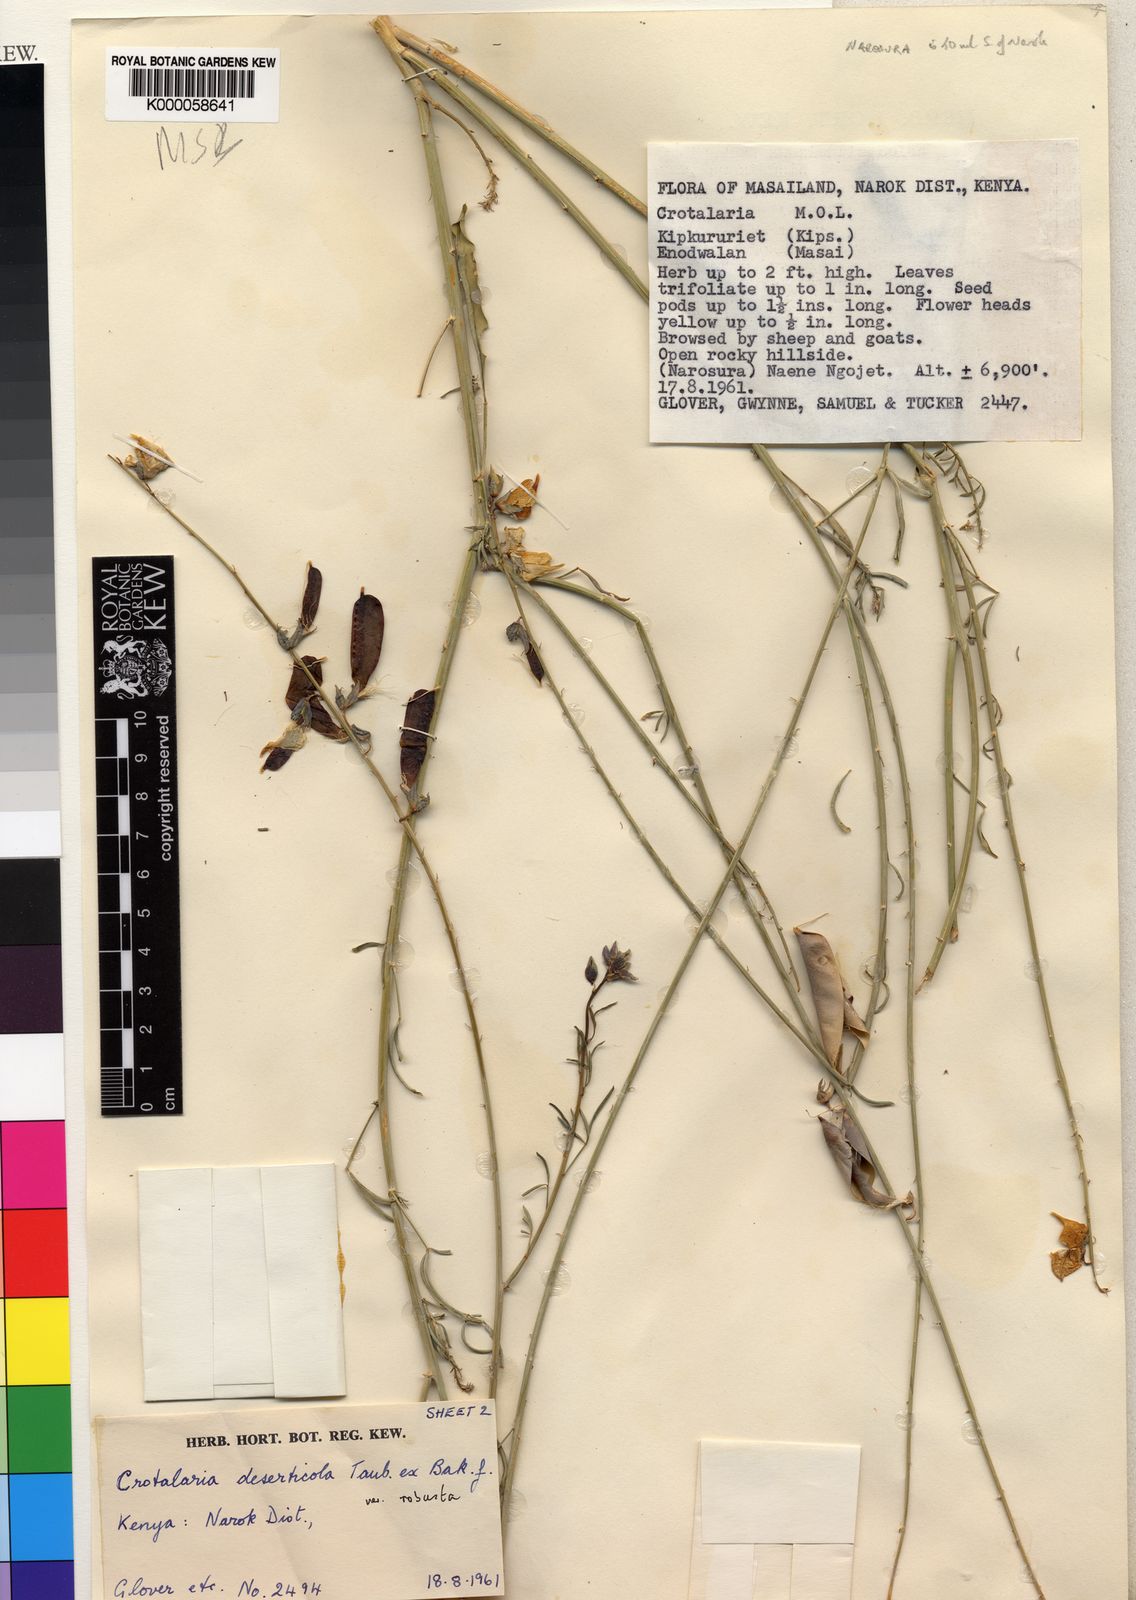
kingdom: Plantae
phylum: Tracheophyta
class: Magnoliopsida
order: Fabales
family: Fabaceae
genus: Crotalaria
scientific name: Crotalaria deserticola
